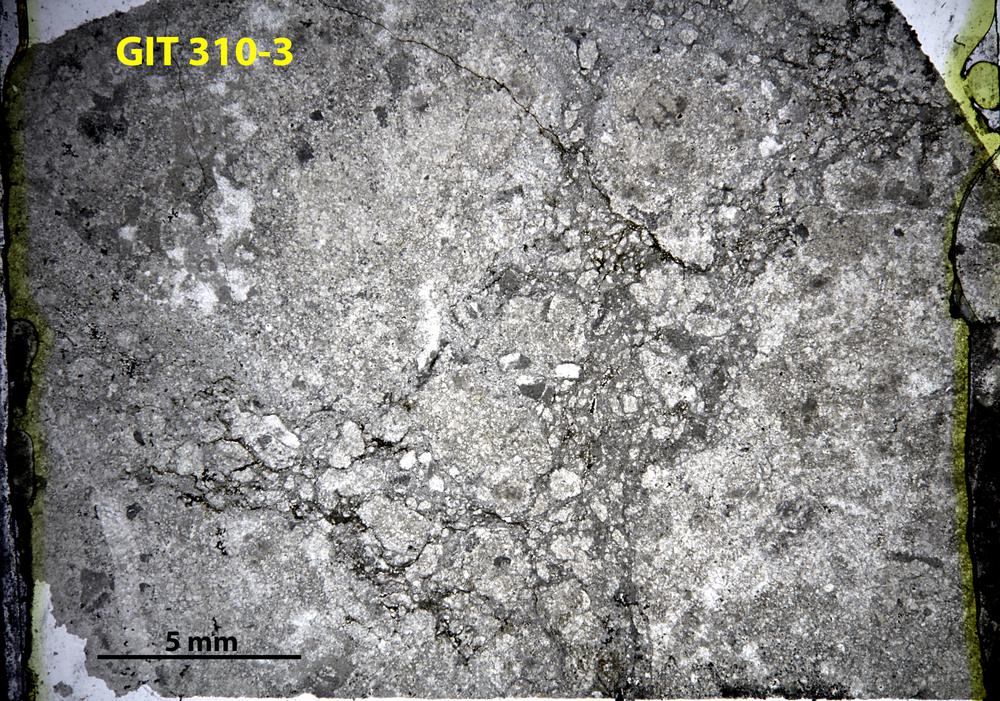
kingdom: Animalia
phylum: Porifera
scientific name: Porifera
